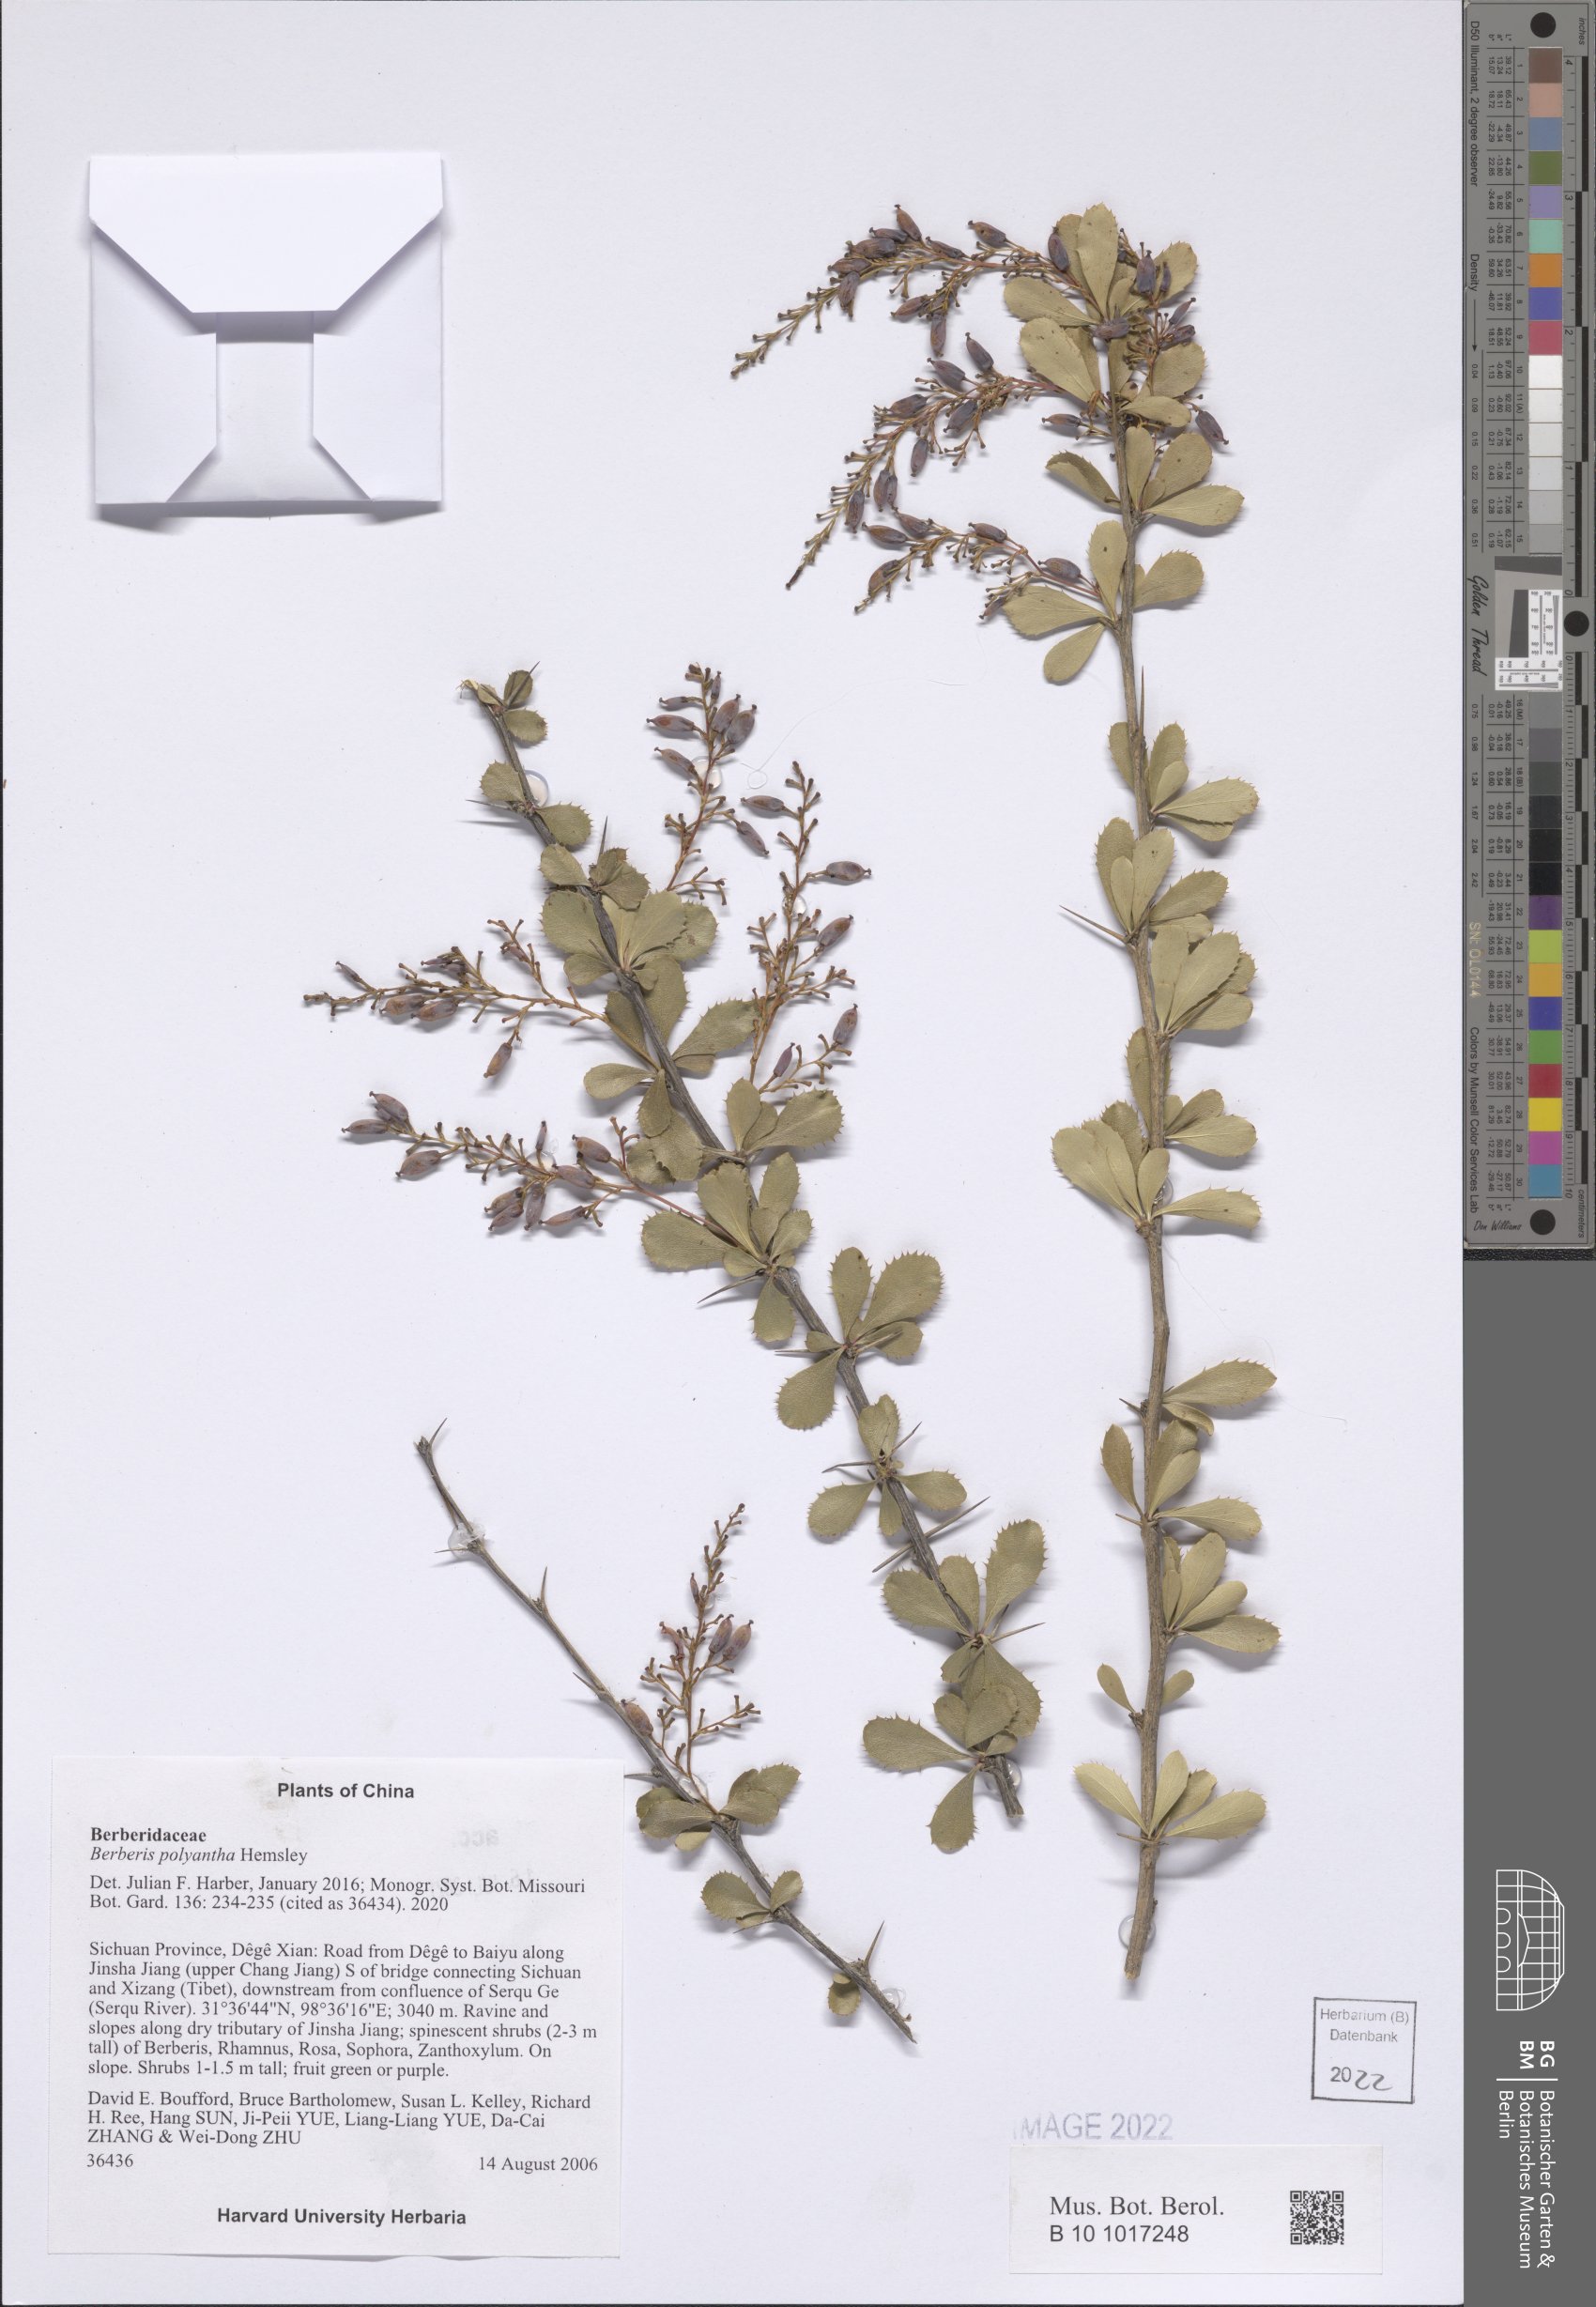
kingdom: Plantae
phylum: Tracheophyta
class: Magnoliopsida
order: Ranunculales
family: Berberidaceae
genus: Berberis
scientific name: Berberis polyantha
